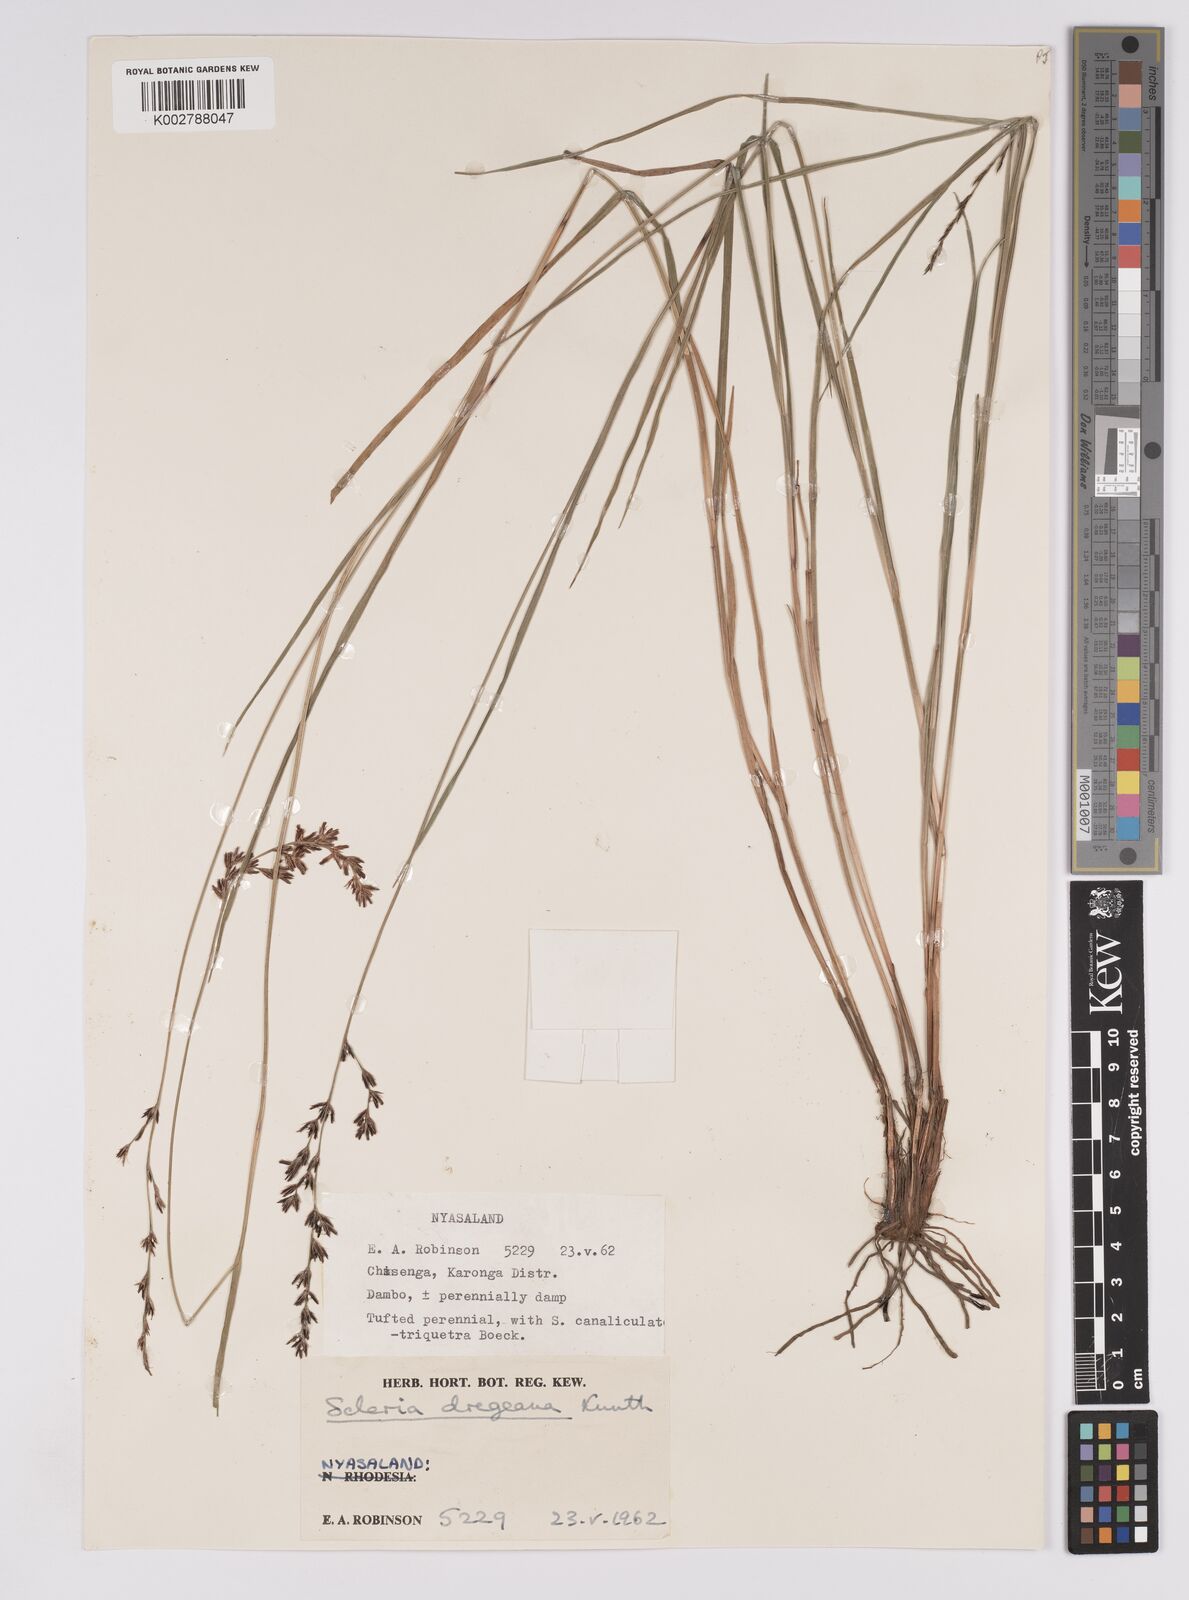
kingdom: Plantae
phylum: Tracheophyta
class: Liliopsida
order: Poales
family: Cyperaceae
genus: Scleria
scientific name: Scleria dregeana
